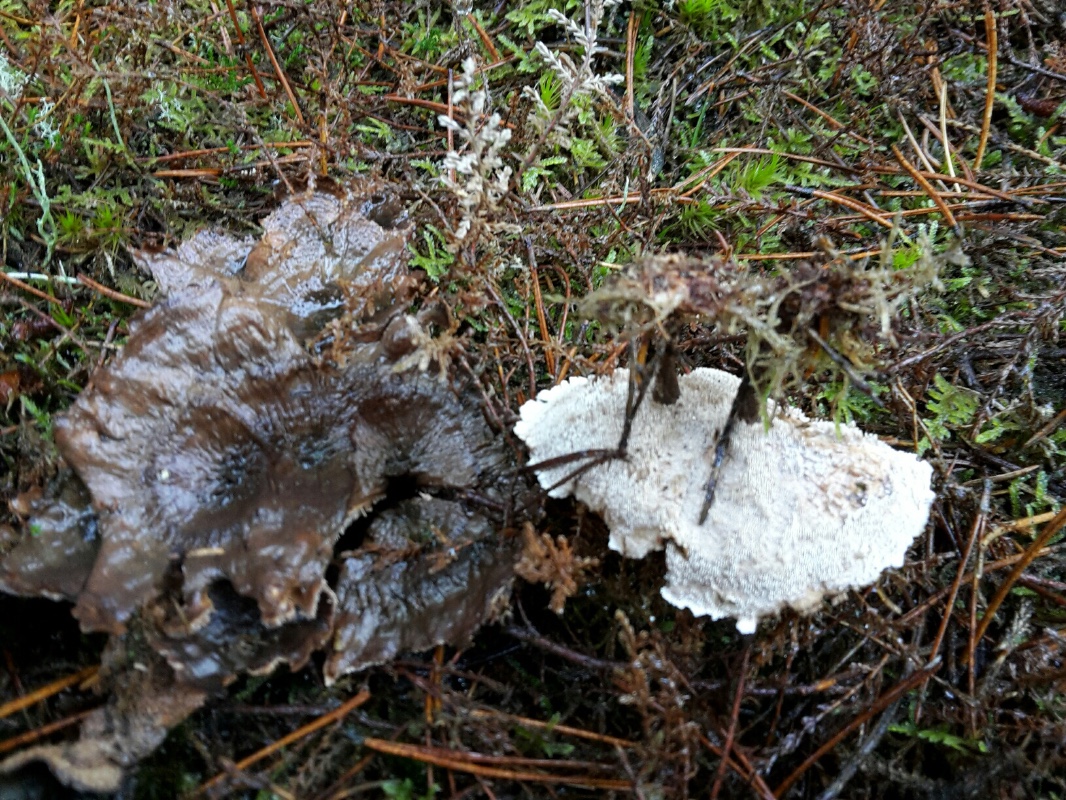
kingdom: Fungi
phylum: Basidiomycota
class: Agaricomycetes
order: Thelephorales
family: Thelephoraceae
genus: Phellodon
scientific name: Phellodon tomentosus
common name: tragtformet duftpigsvamp
